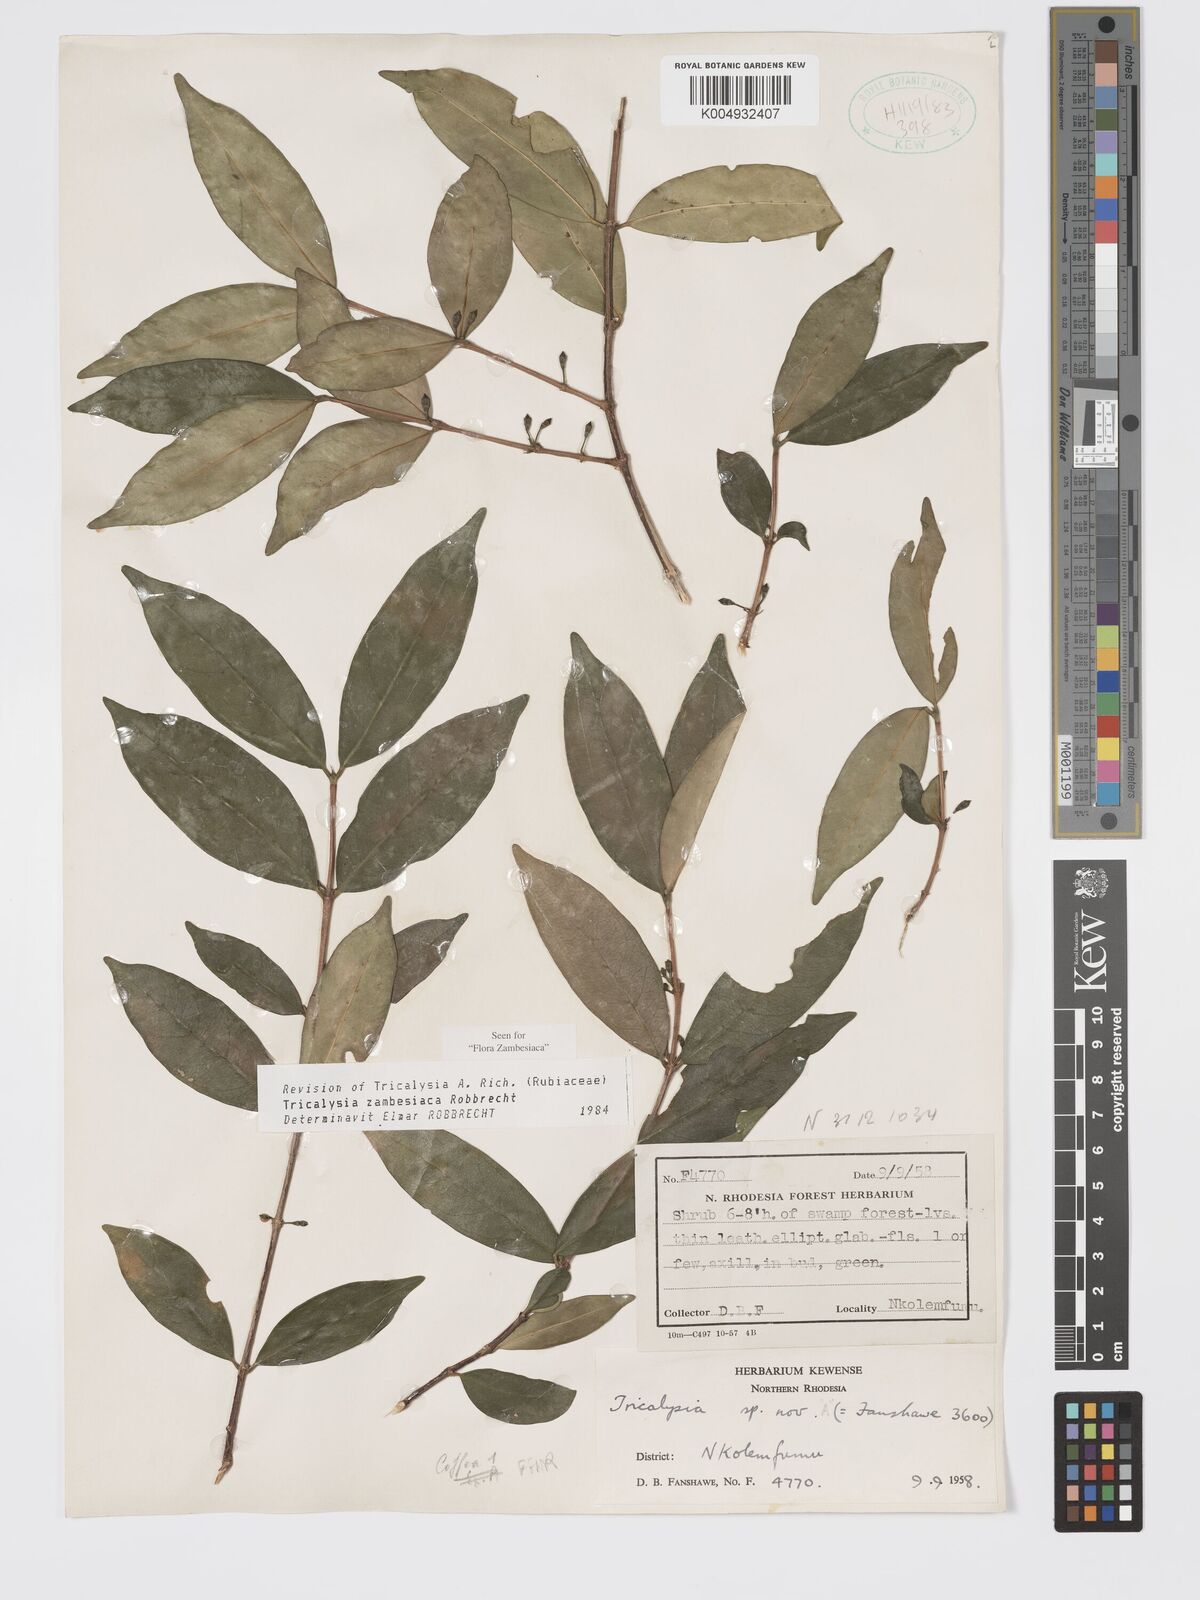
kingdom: Plantae
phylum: Tracheophyta
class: Magnoliopsida
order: Gentianales
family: Rubiaceae
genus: Tricalysia
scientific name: Tricalysia
